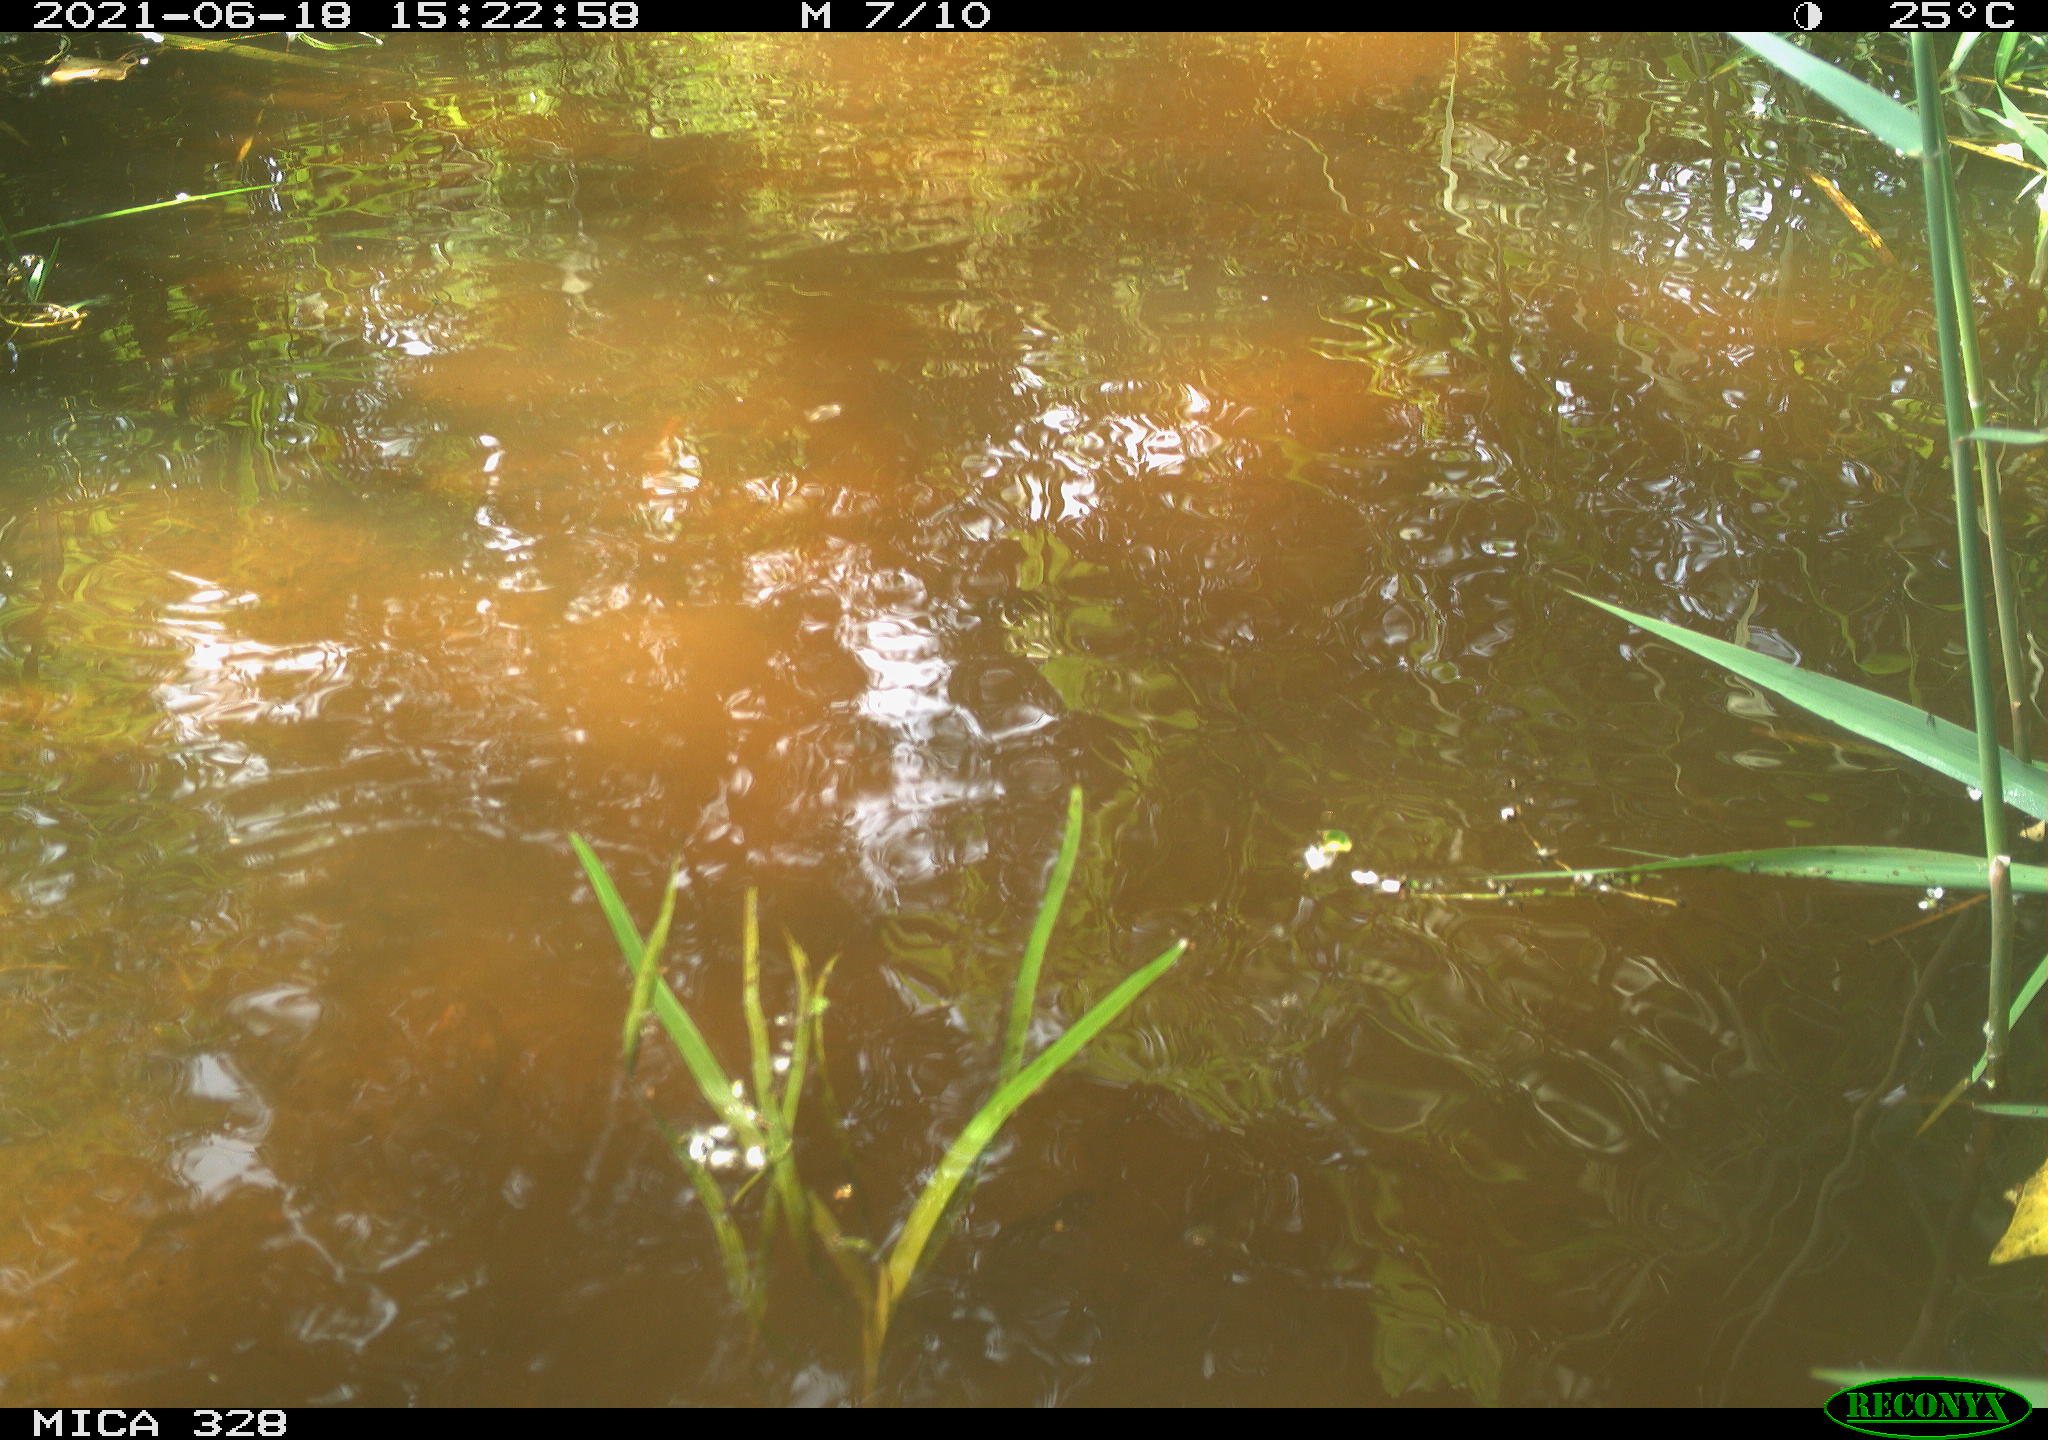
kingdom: Animalia
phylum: Chordata
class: Aves
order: Anseriformes
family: Anatidae
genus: Aix
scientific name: Aix galericulata
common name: Mandarin duck
